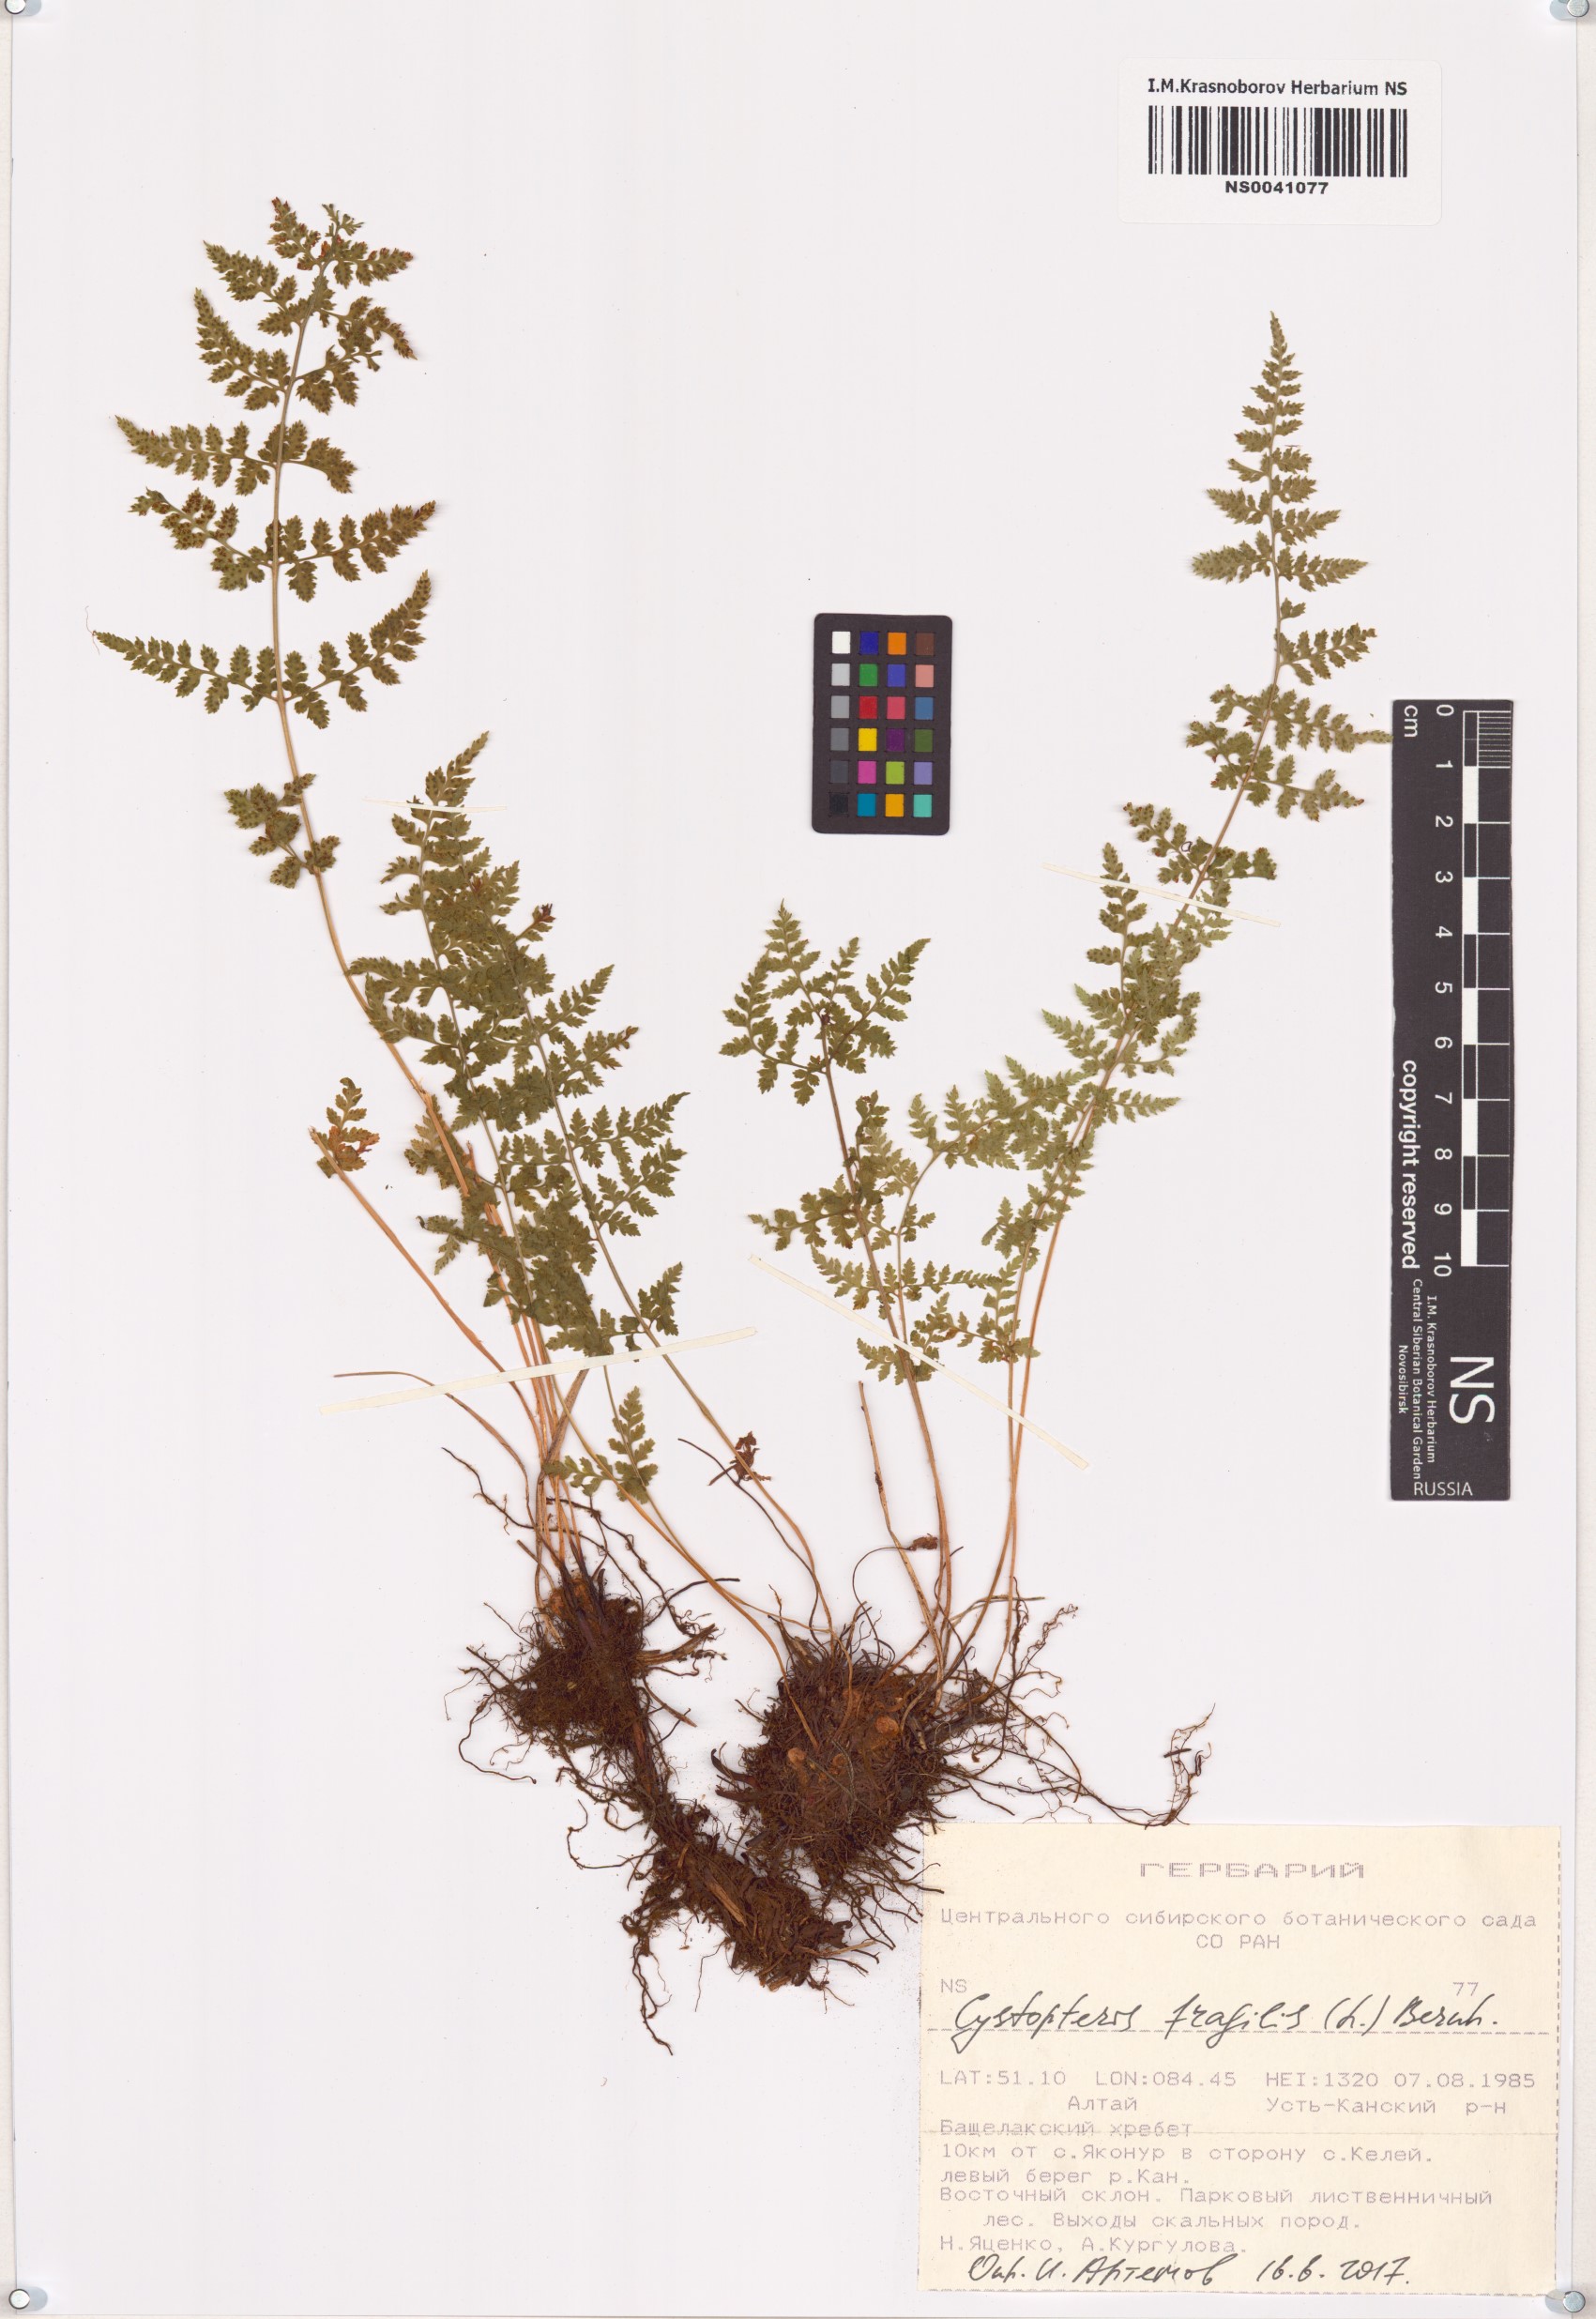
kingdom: Plantae
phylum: Tracheophyta
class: Polypodiopsida
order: Polypodiales
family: Cystopteridaceae
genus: Cystopteris
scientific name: Cystopteris fragilis
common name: Brittle bladder fern
